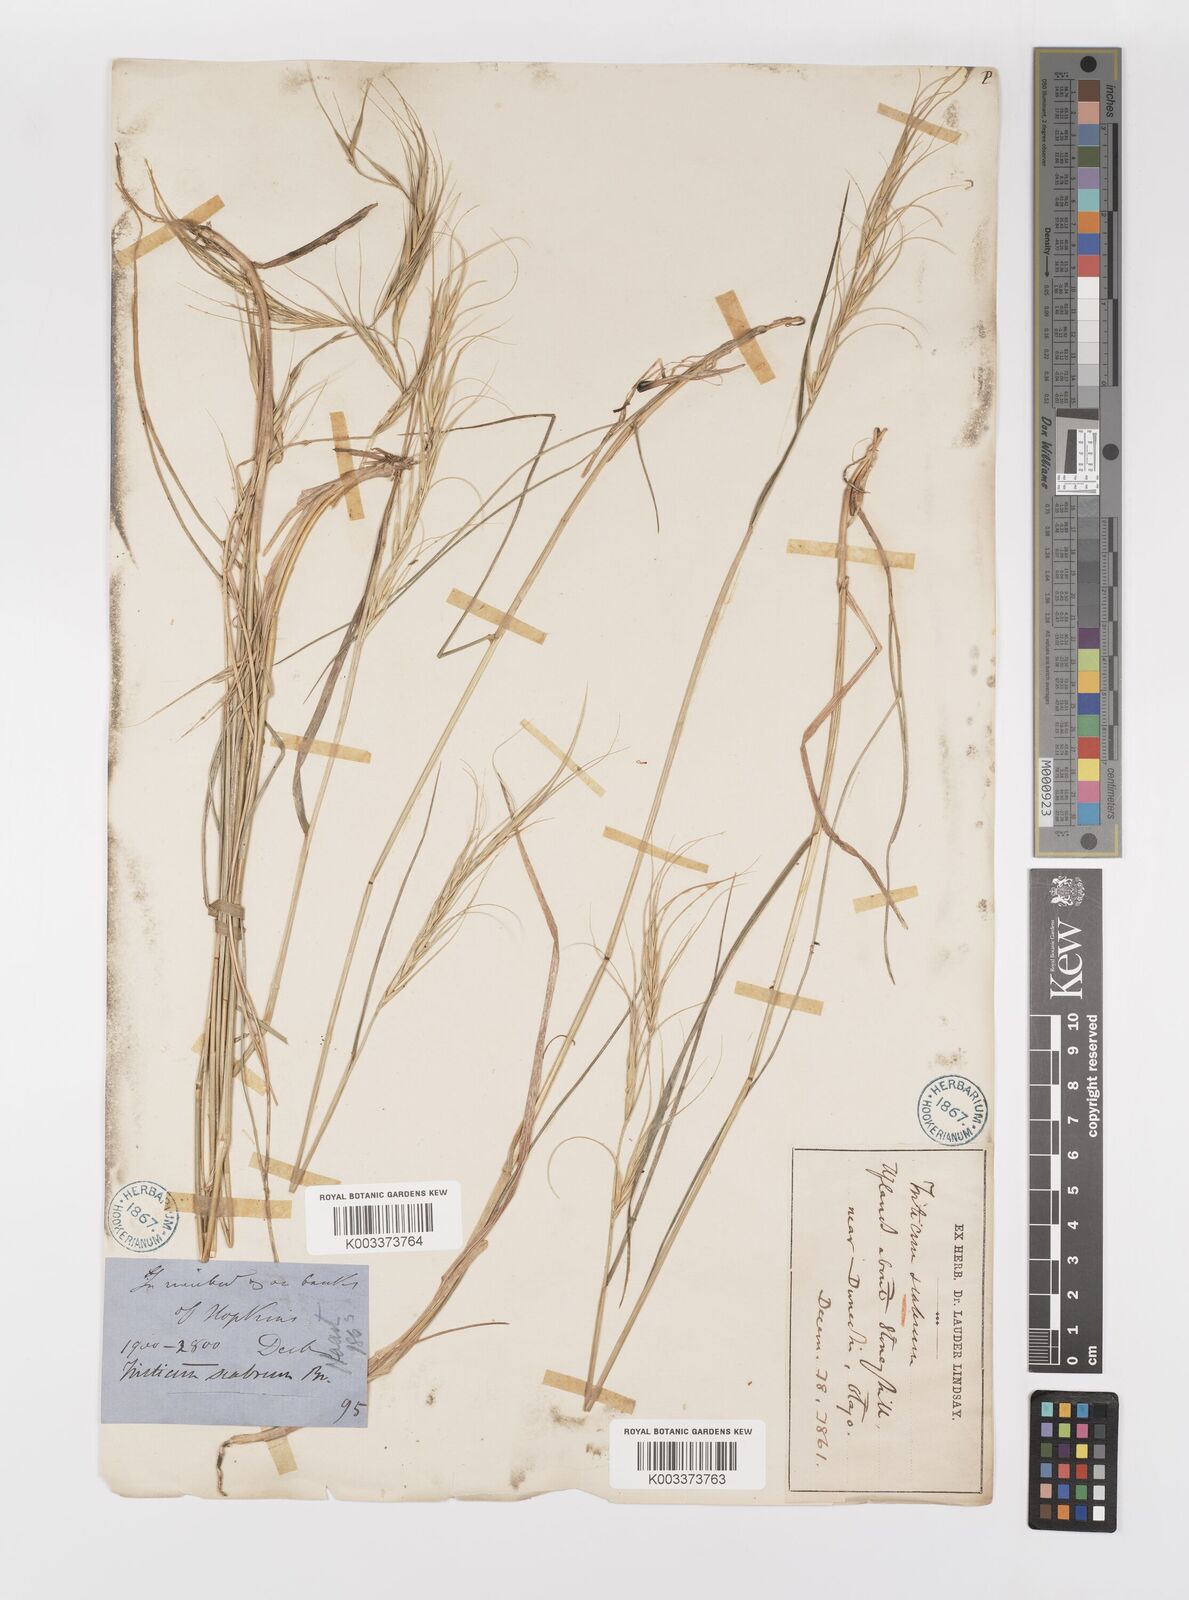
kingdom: Plantae
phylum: Tracheophyta
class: Liliopsida
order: Poales
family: Poaceae
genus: Anthosachne
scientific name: Anthosachne scabra
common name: Common wheatgrass
